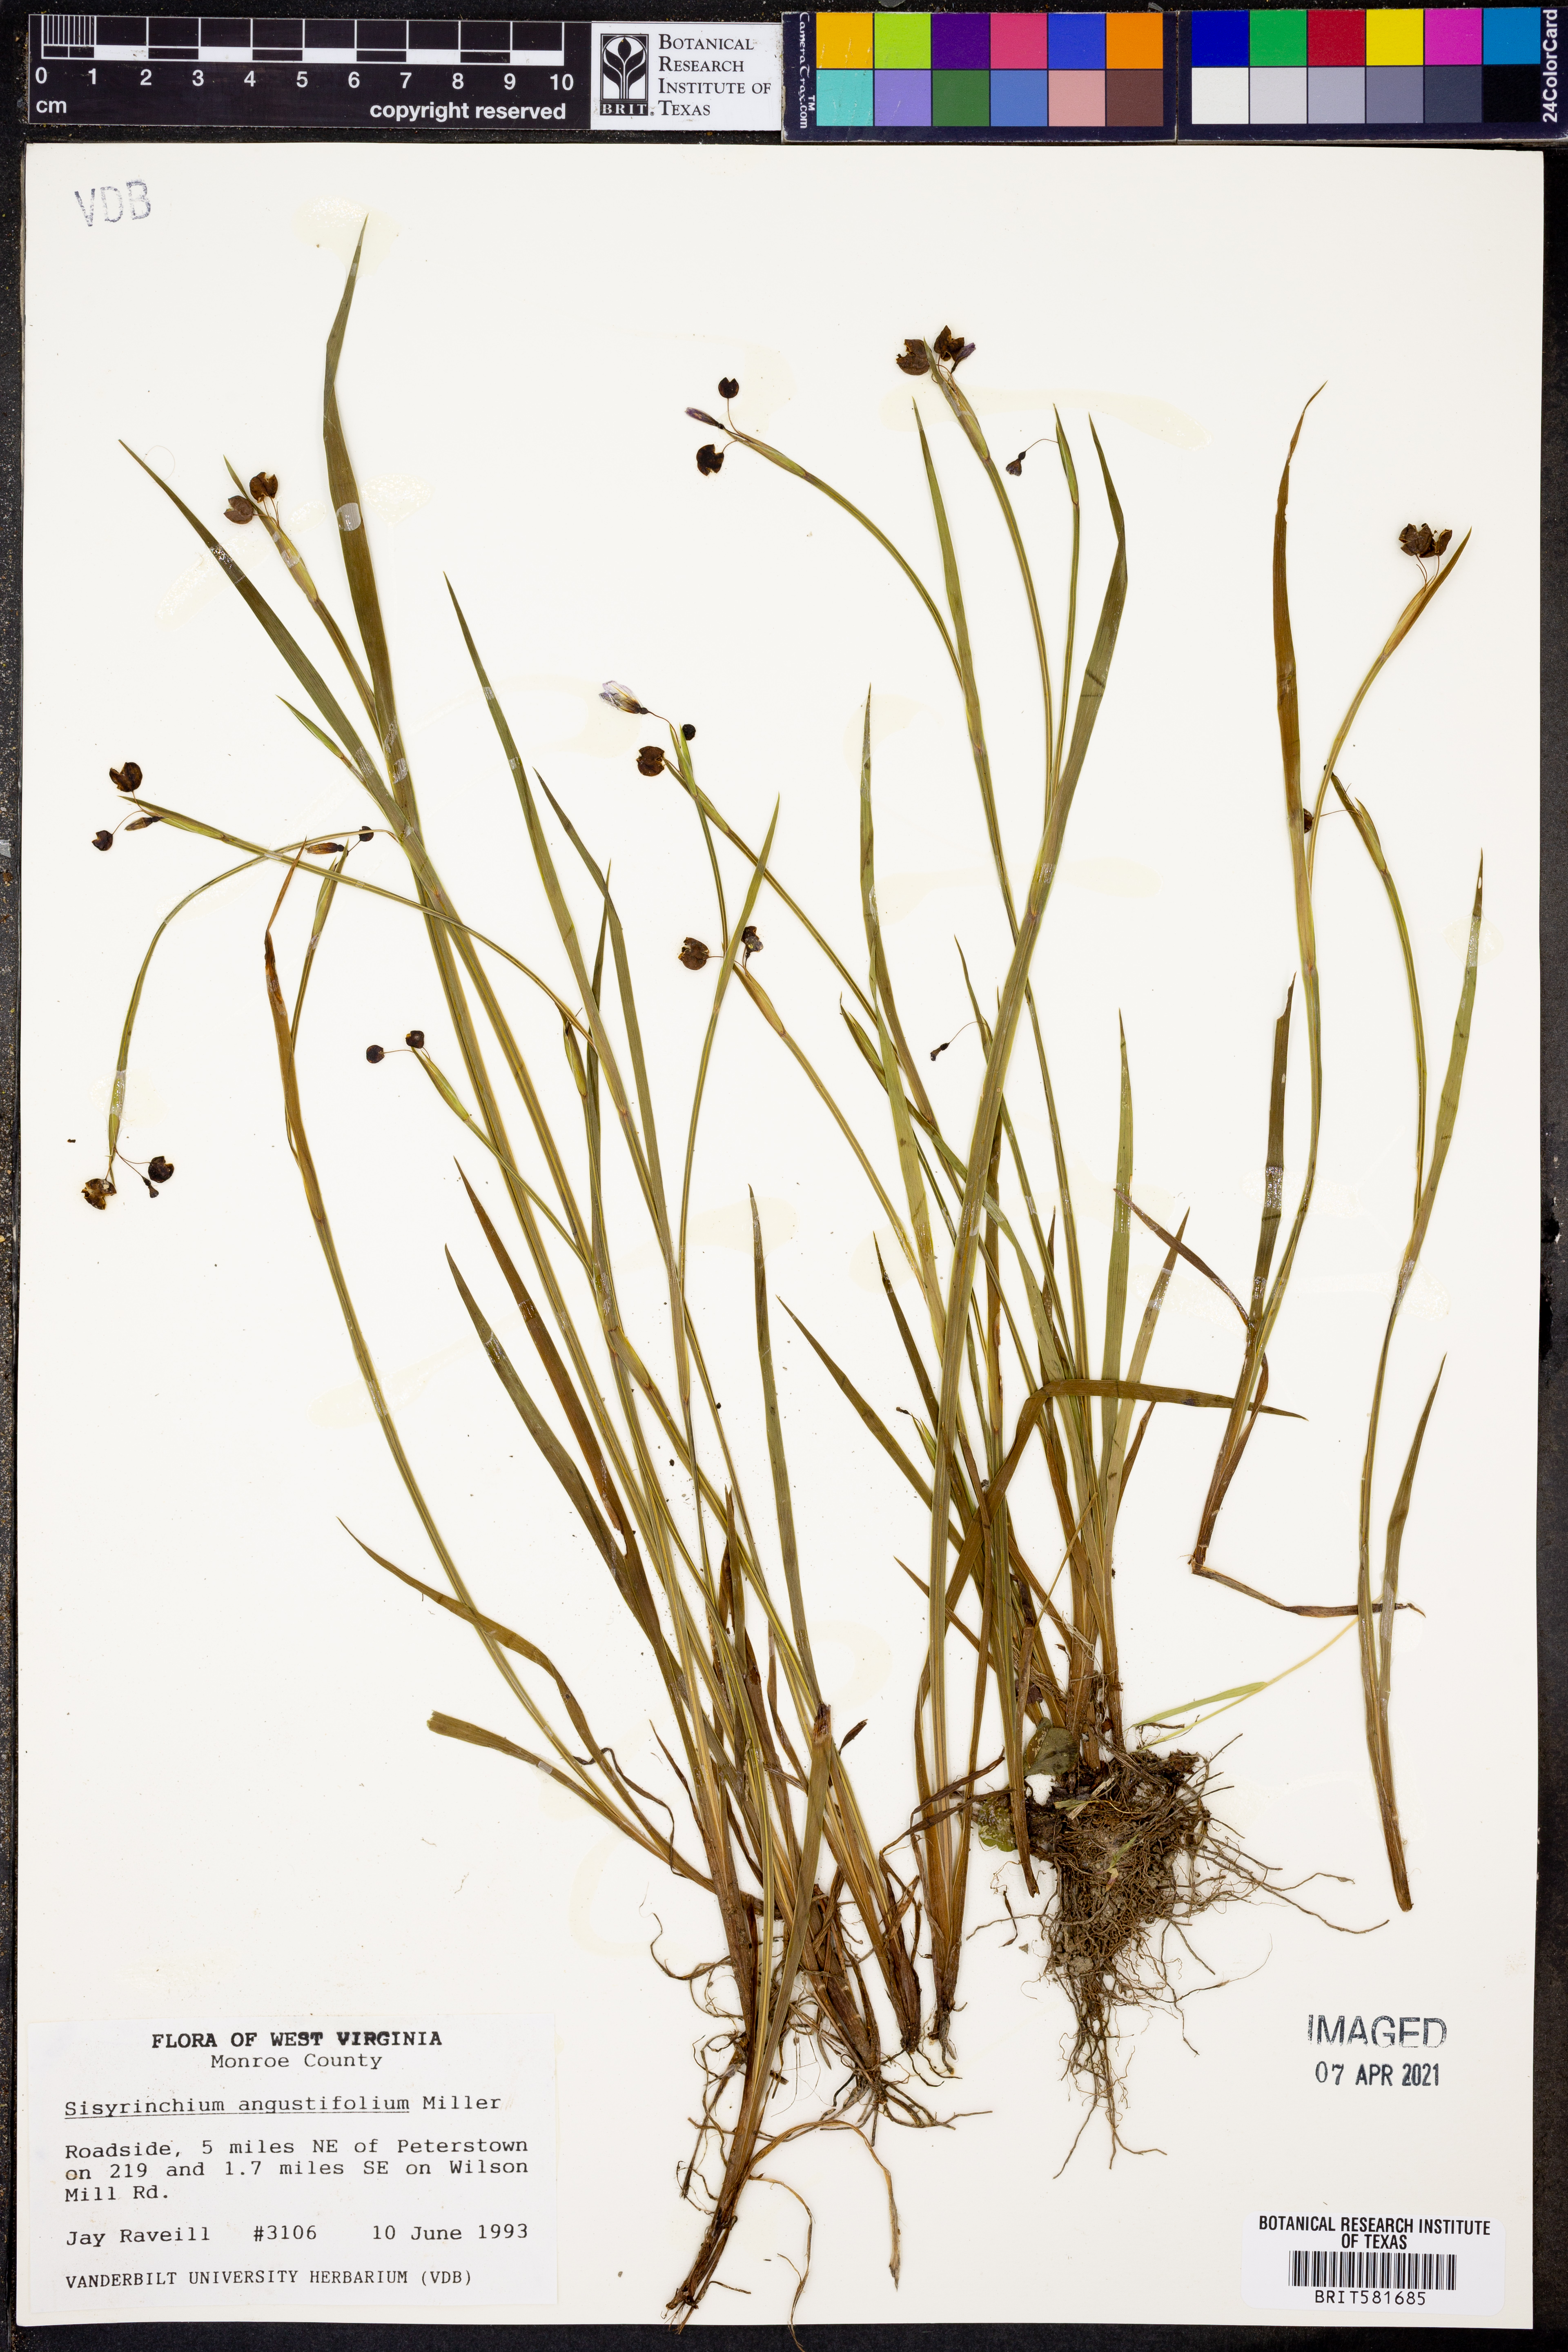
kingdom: Plantae
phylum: Tracheophyta
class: Liliopsida
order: Asparagales
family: Iridaceae
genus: Sisyrinchium
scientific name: Sisyrinchium angustifolium
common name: Narrow-leaf blue-eyed-grass
